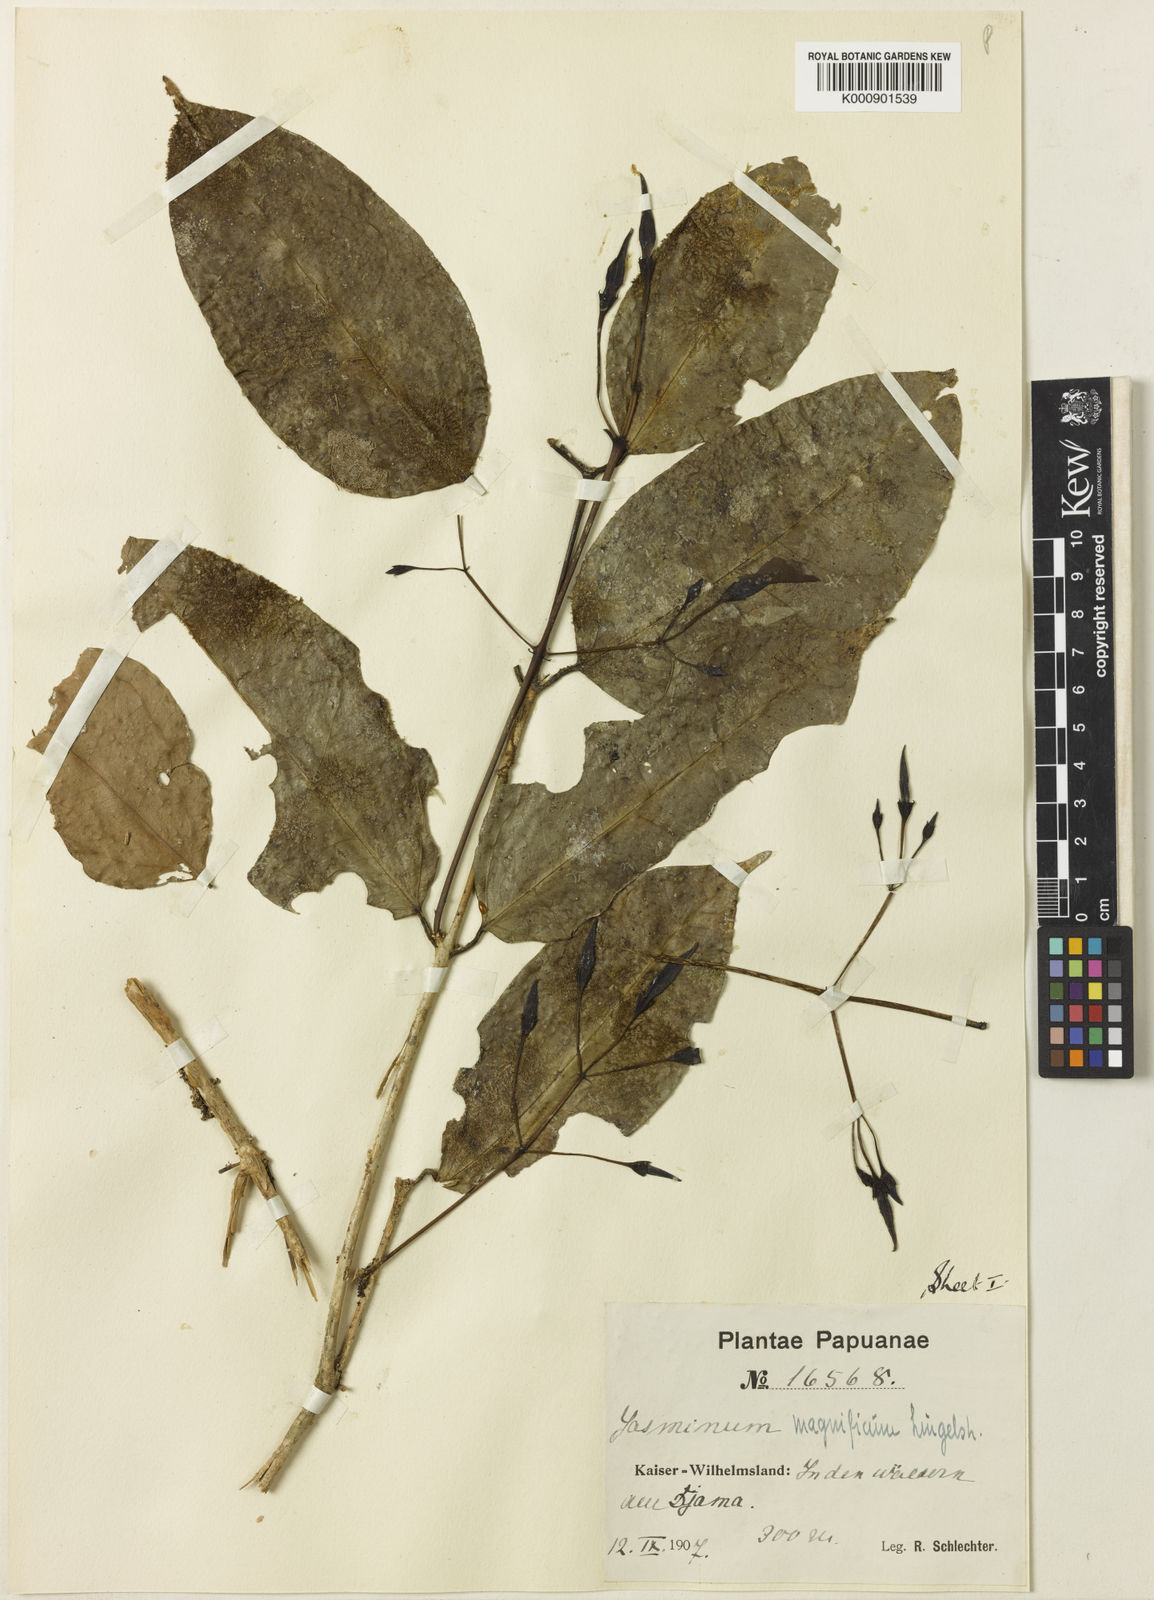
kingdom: Plantae
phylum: Tracheophyta
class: Magnoliopsida
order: Lamiales
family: Oleaceae
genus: Jasminum
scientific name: Jasminum magnificum
